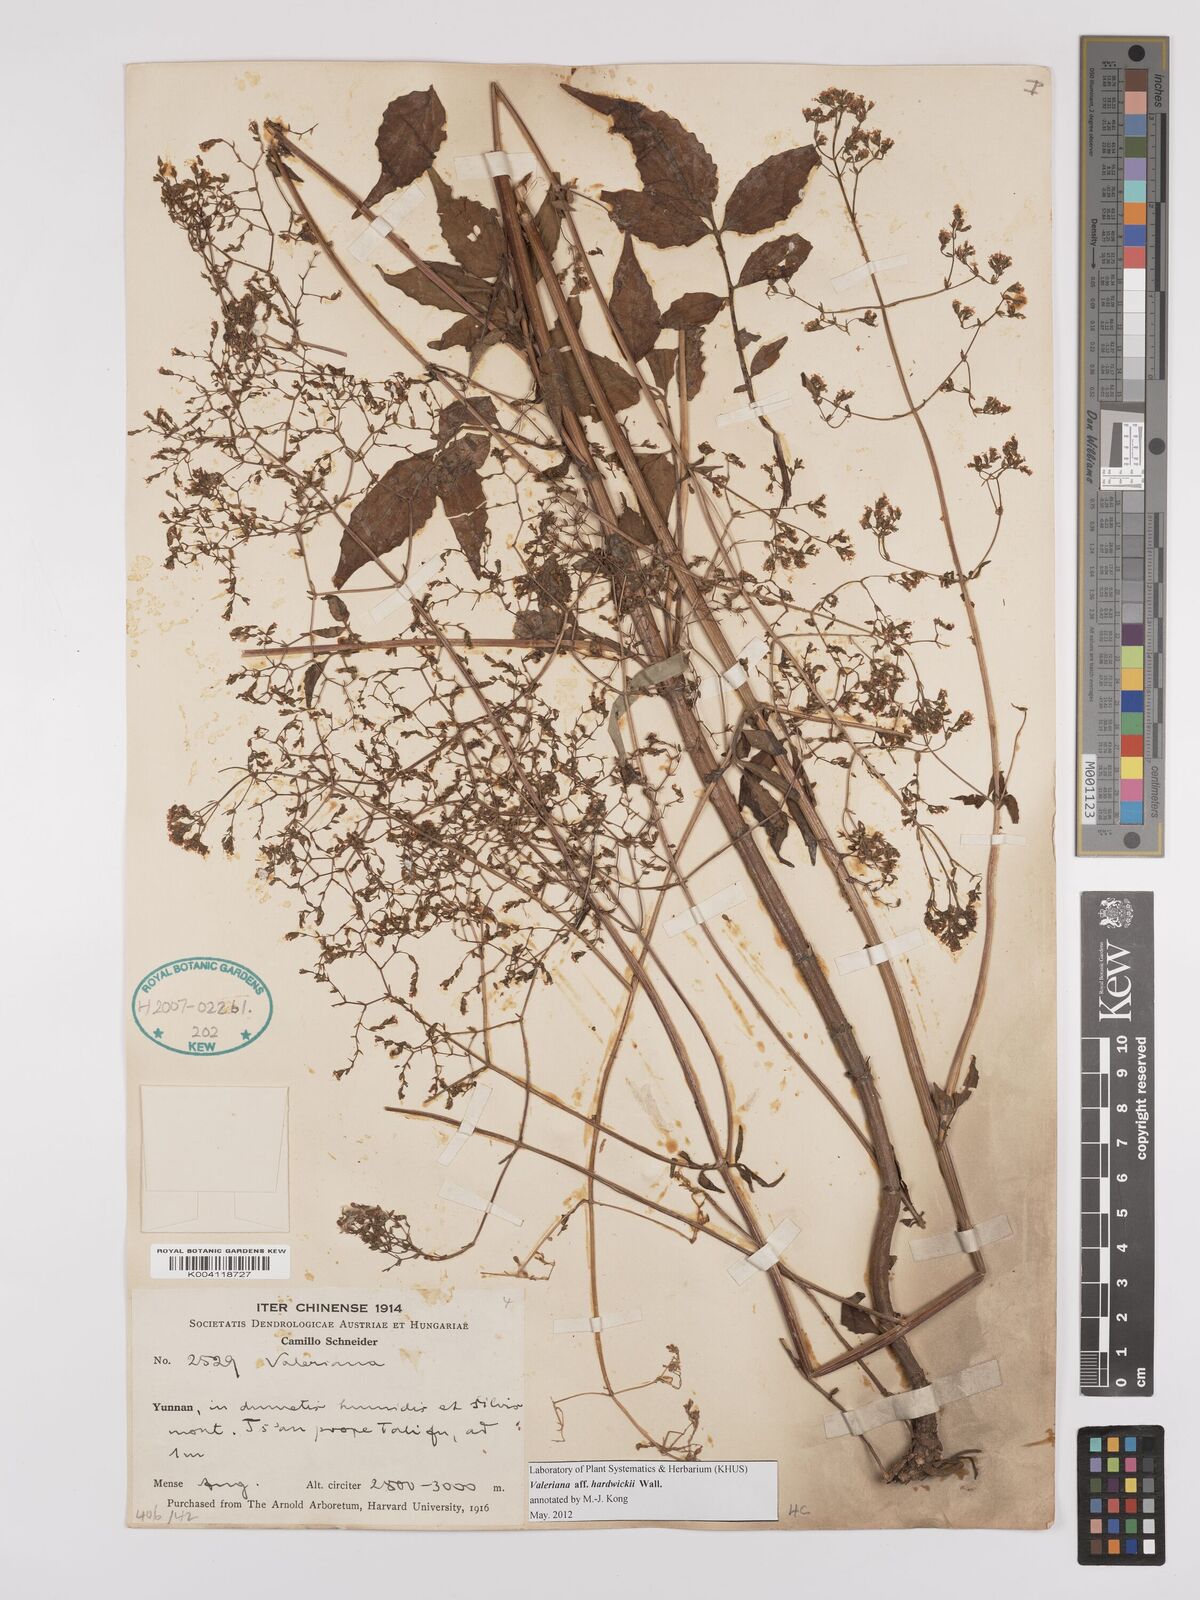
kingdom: Plantae
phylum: Tracheophyta
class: Magnoliopsida
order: Dipsacales
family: Caprifoliaceae
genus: Valeriana
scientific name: Valeriana hardwickei
